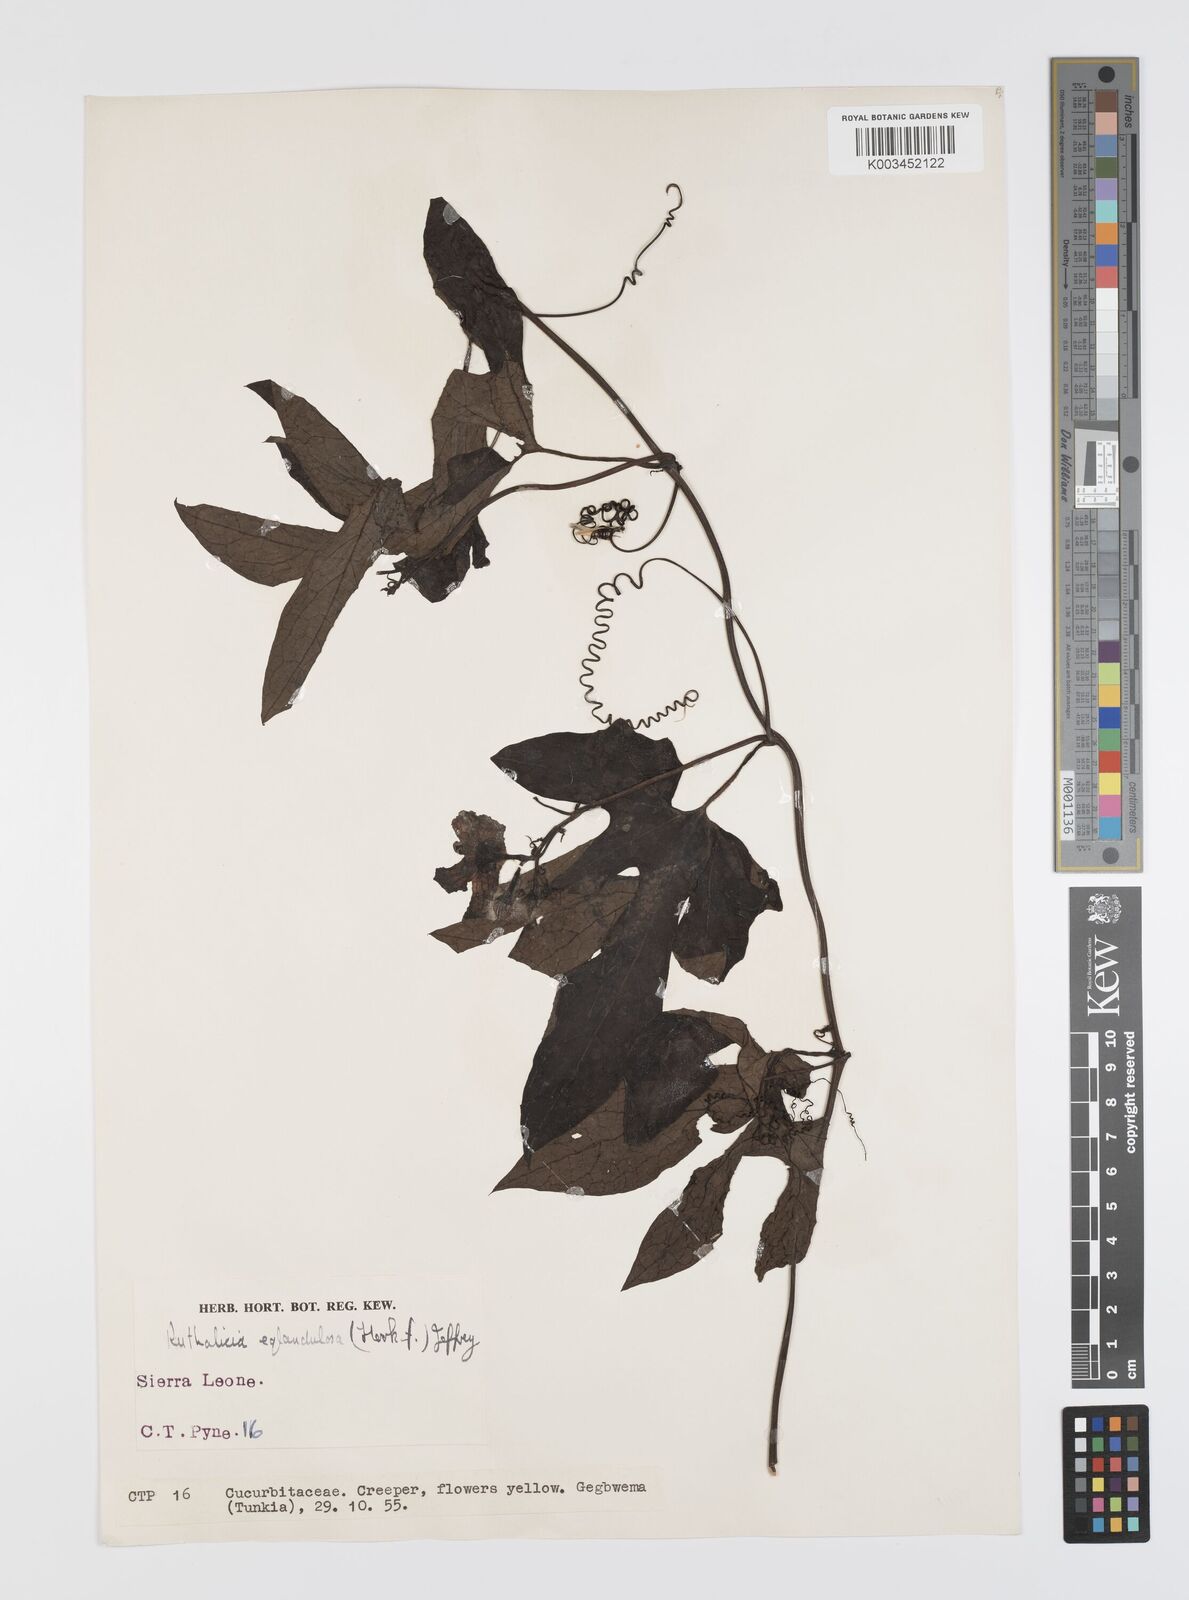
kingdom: Plantae
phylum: Tracheophyta
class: Magnoliopsida
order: Cucurbitales
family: Cucurbitaceae
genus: Ruthalicia
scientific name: Ruthalicia eglandulosa
